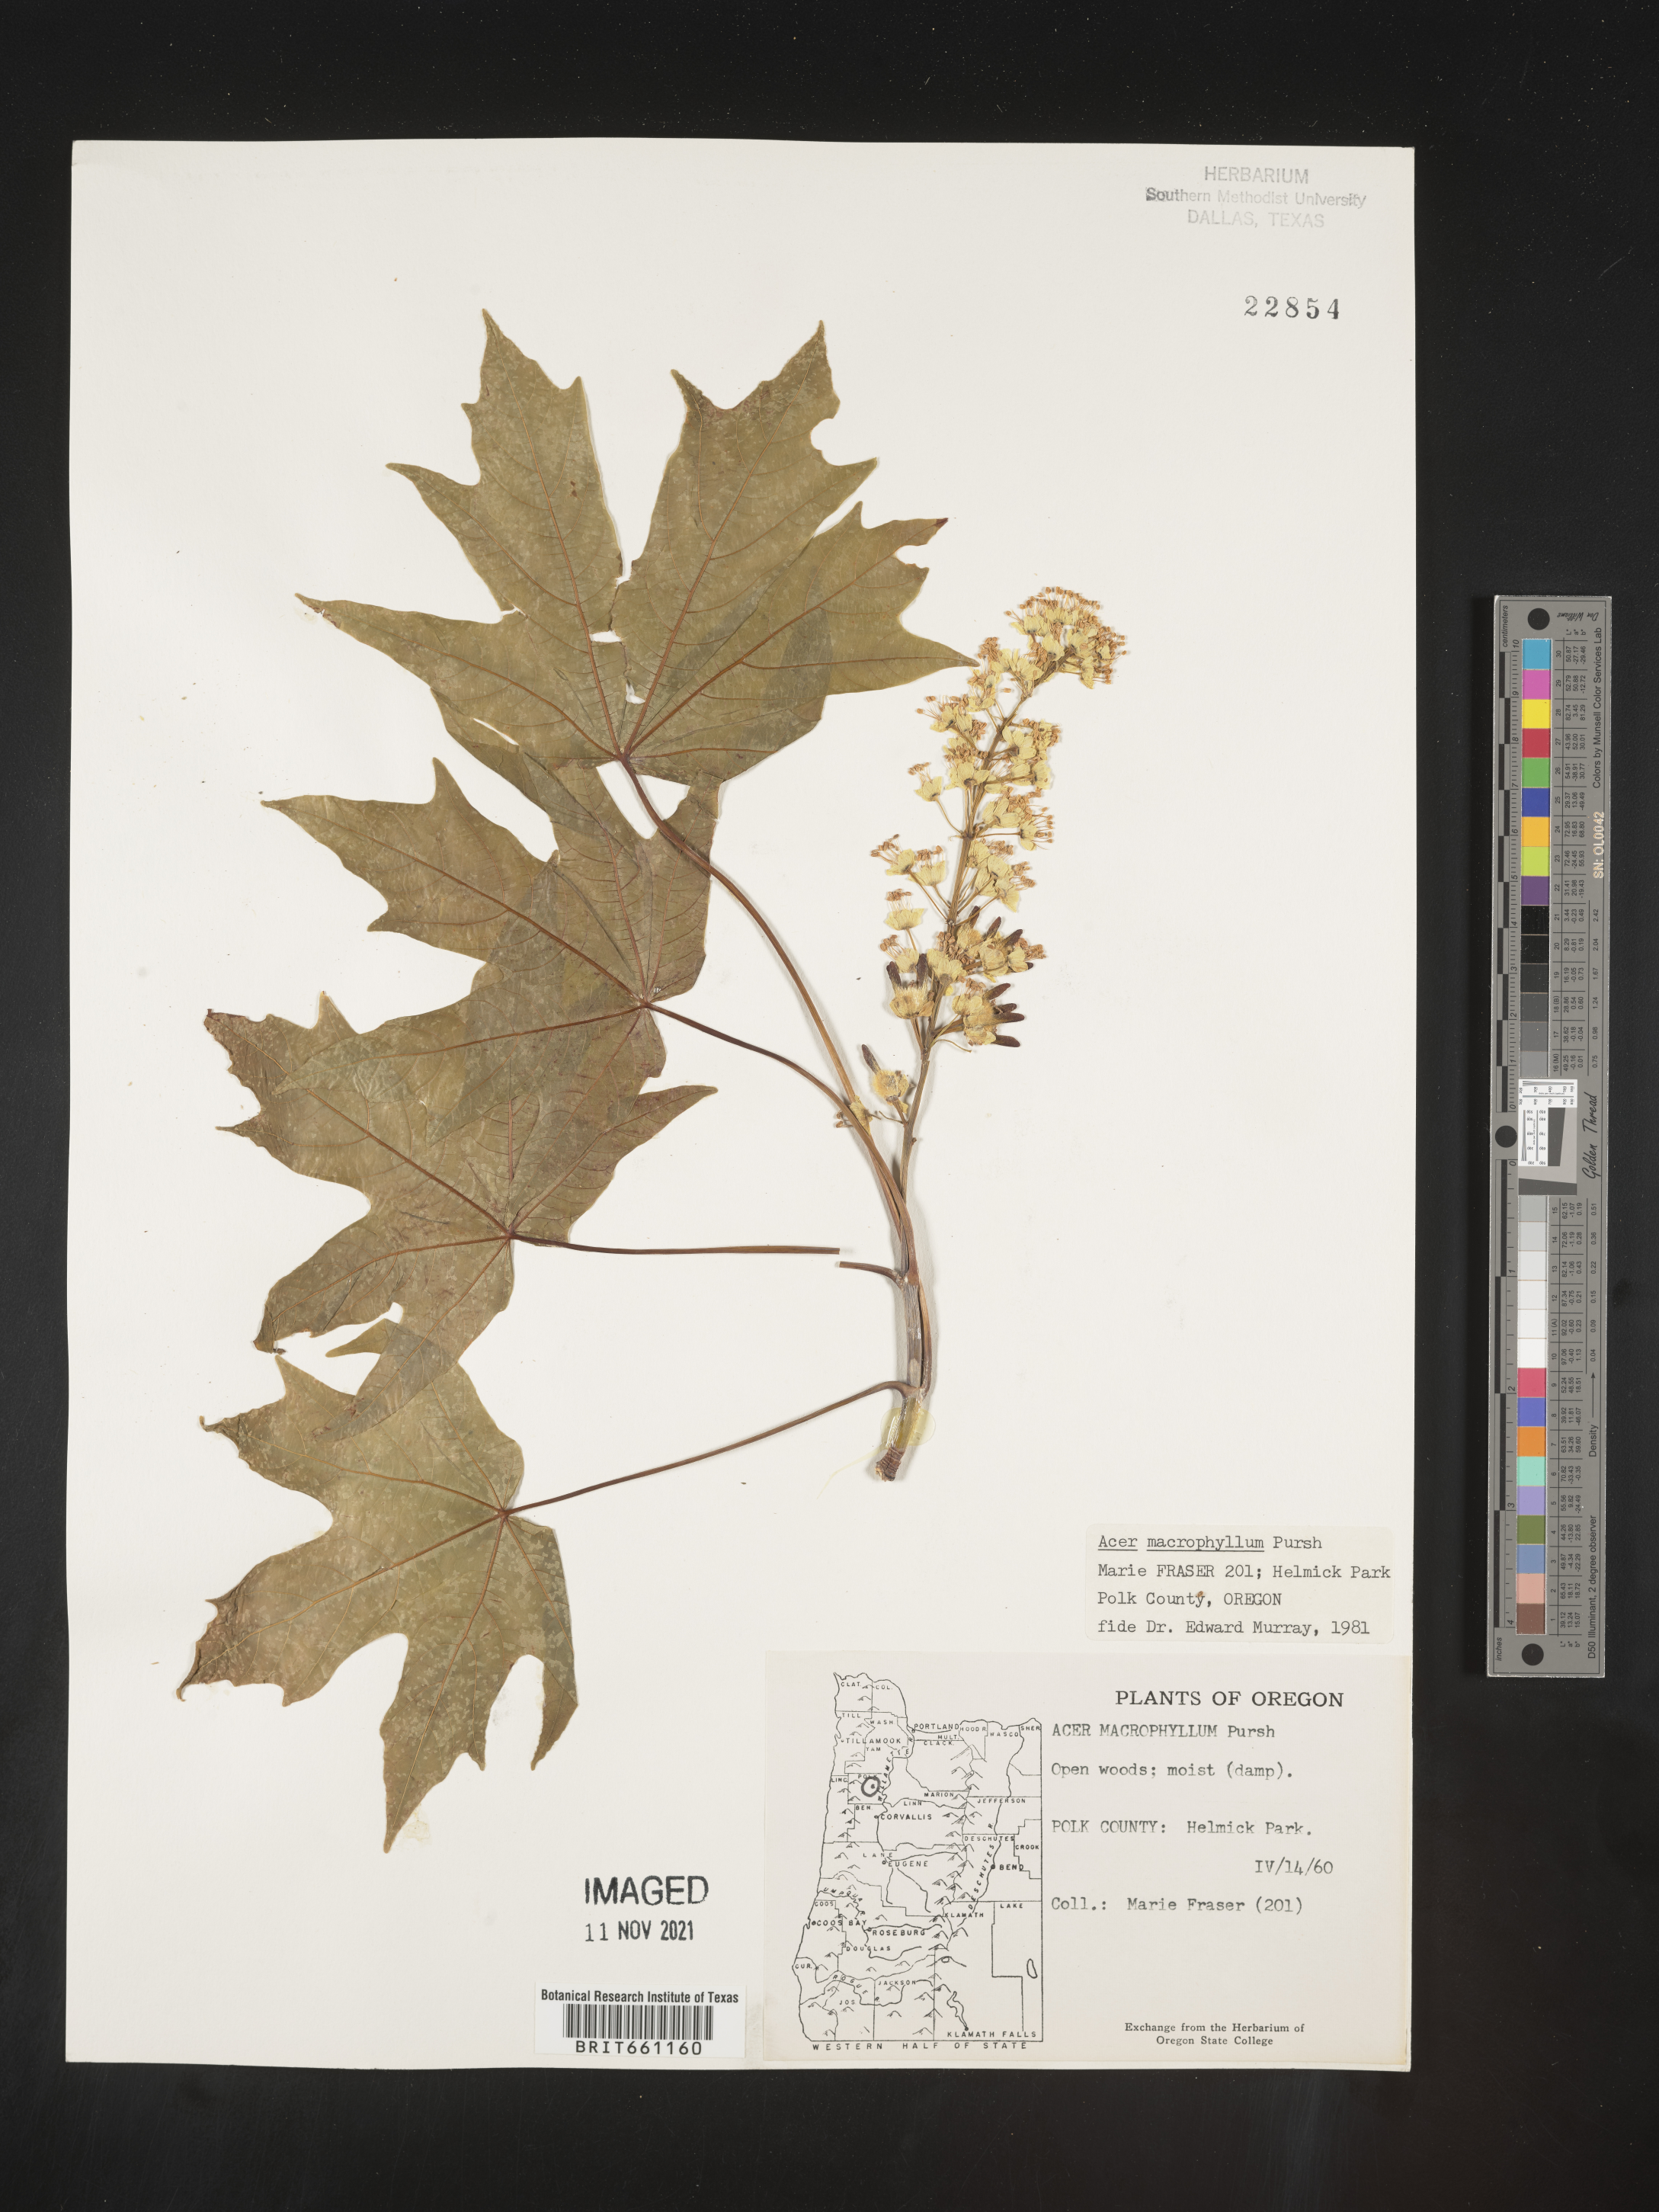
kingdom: Plantae
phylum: Tracheophyta
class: Magnoliopsida
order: Sapindales
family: Sapindaceae
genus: Acer
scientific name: Acer macrophyllum
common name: Oregon maple
